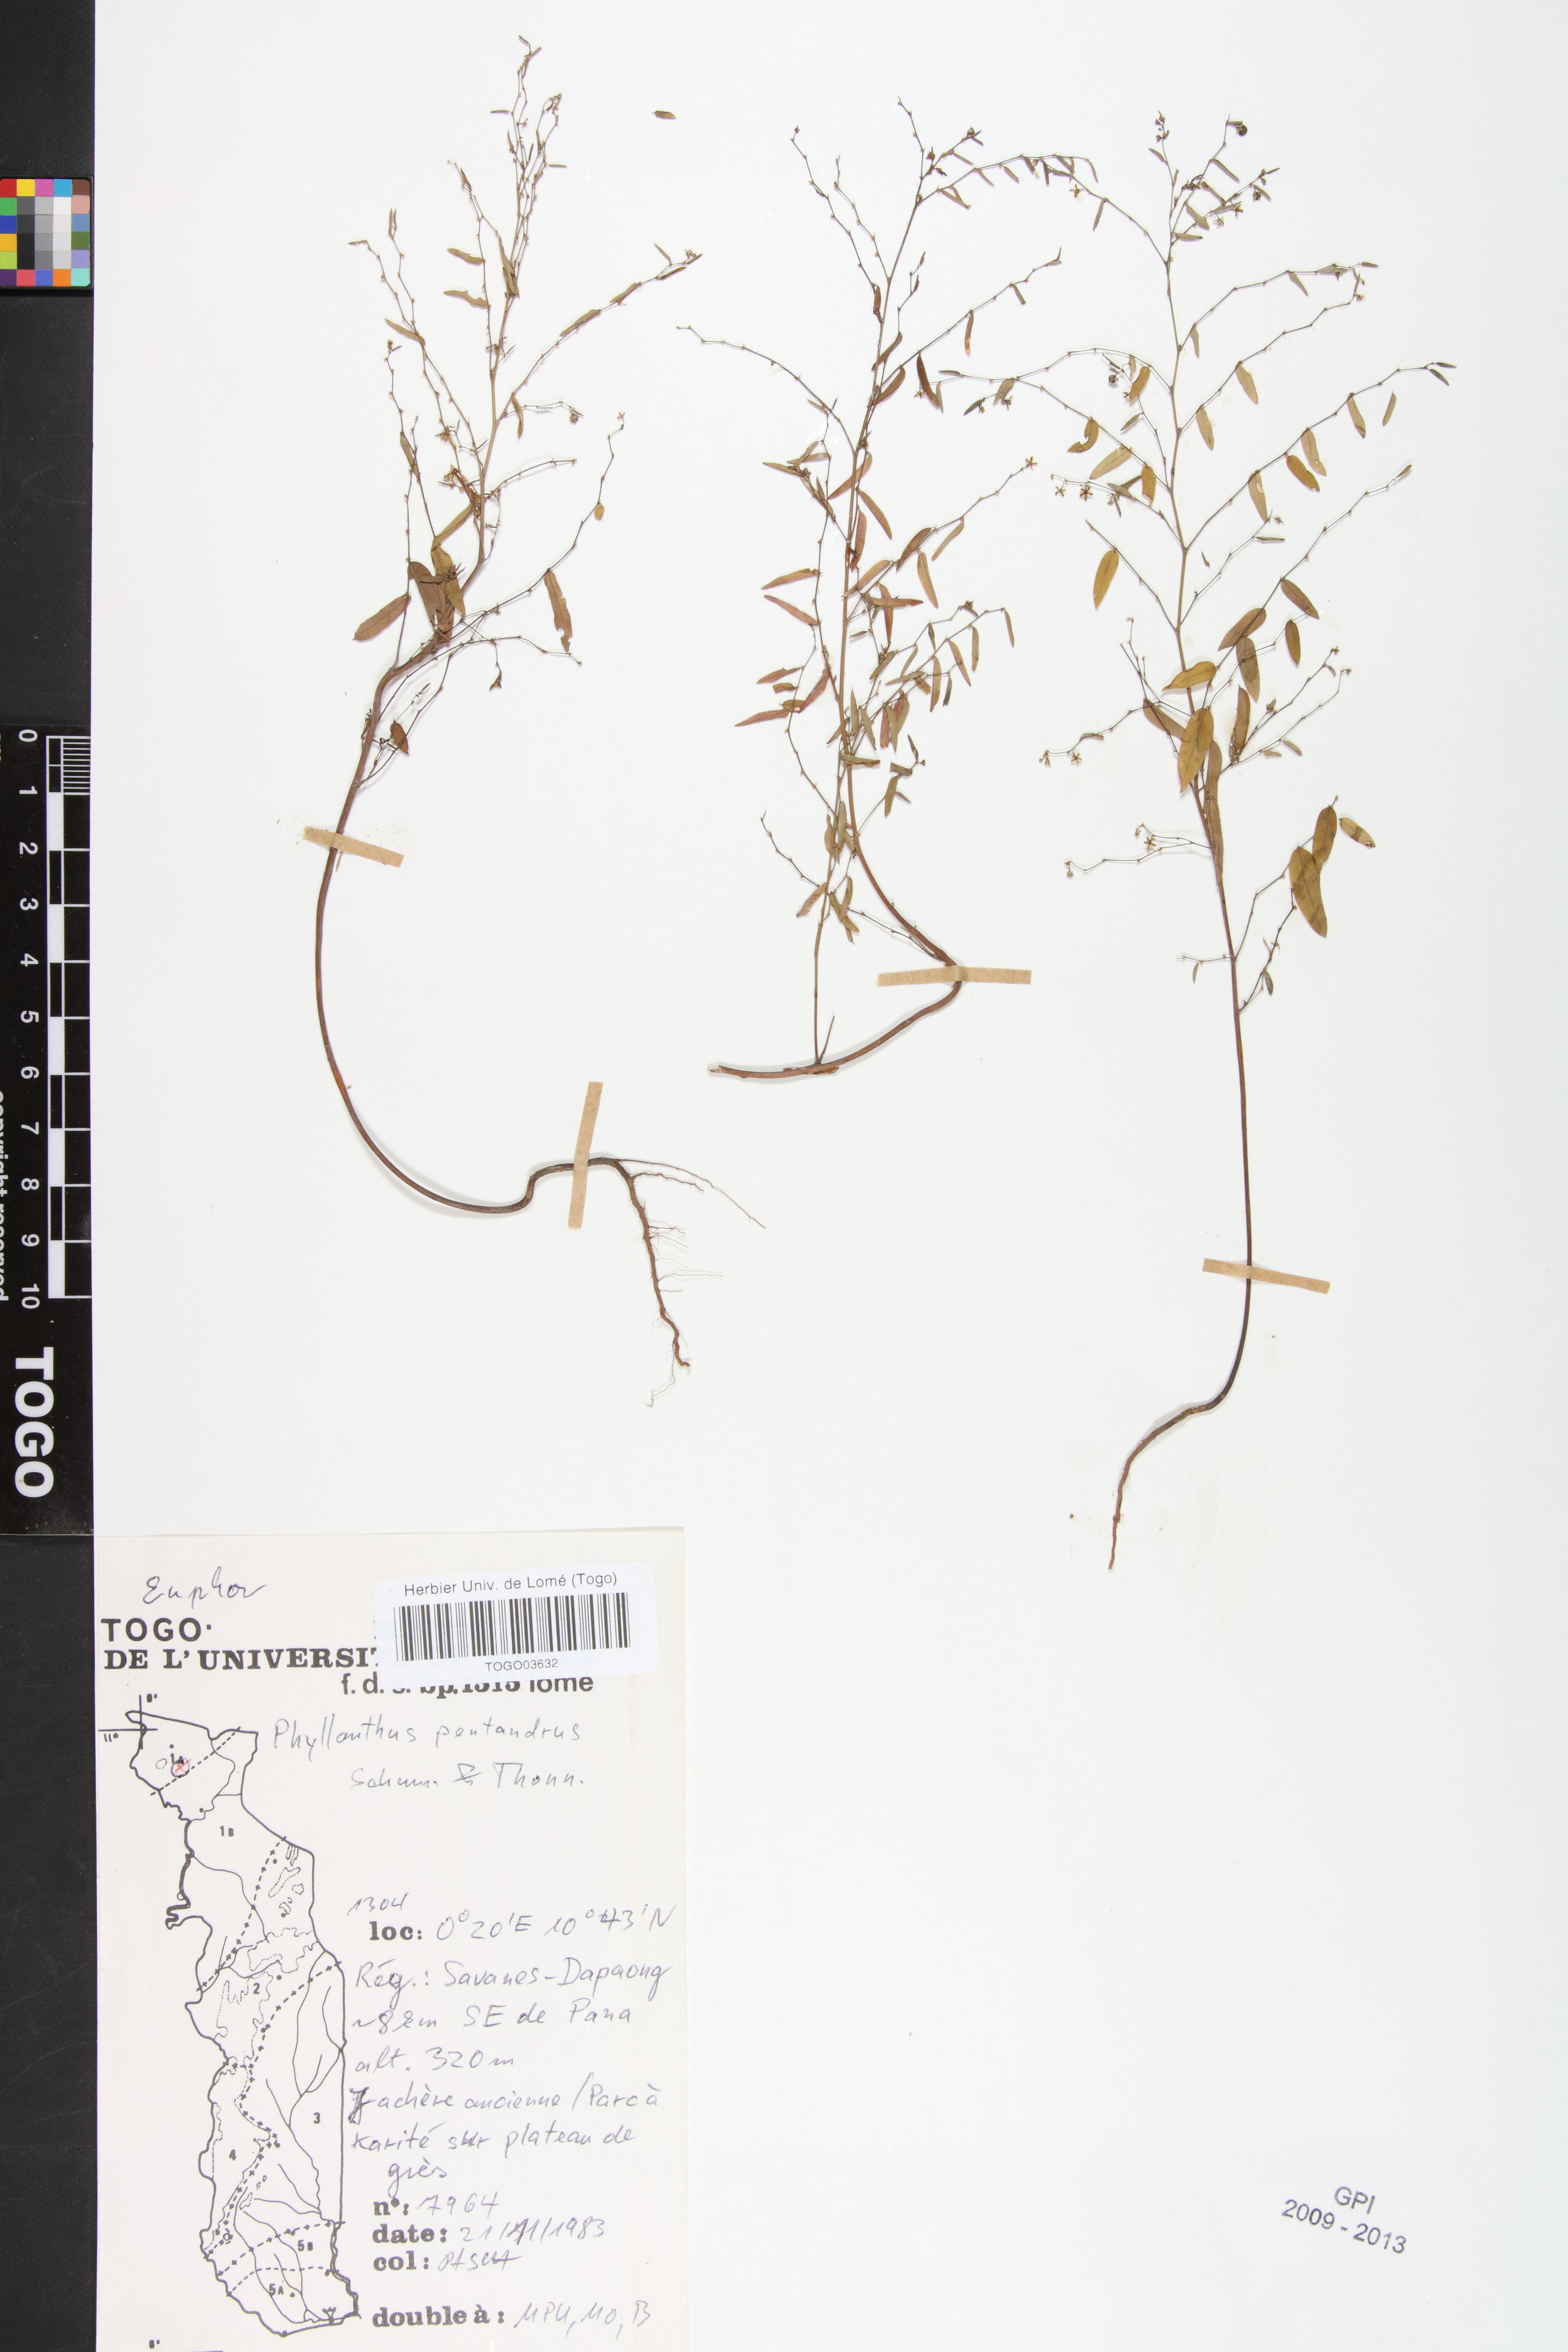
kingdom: Plantae
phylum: Tracheophyta
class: Magnoliopsida
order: Malpighiales
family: Phyllanthaceae
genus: Phyllanthus
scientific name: Phyllanthus pentandrus
